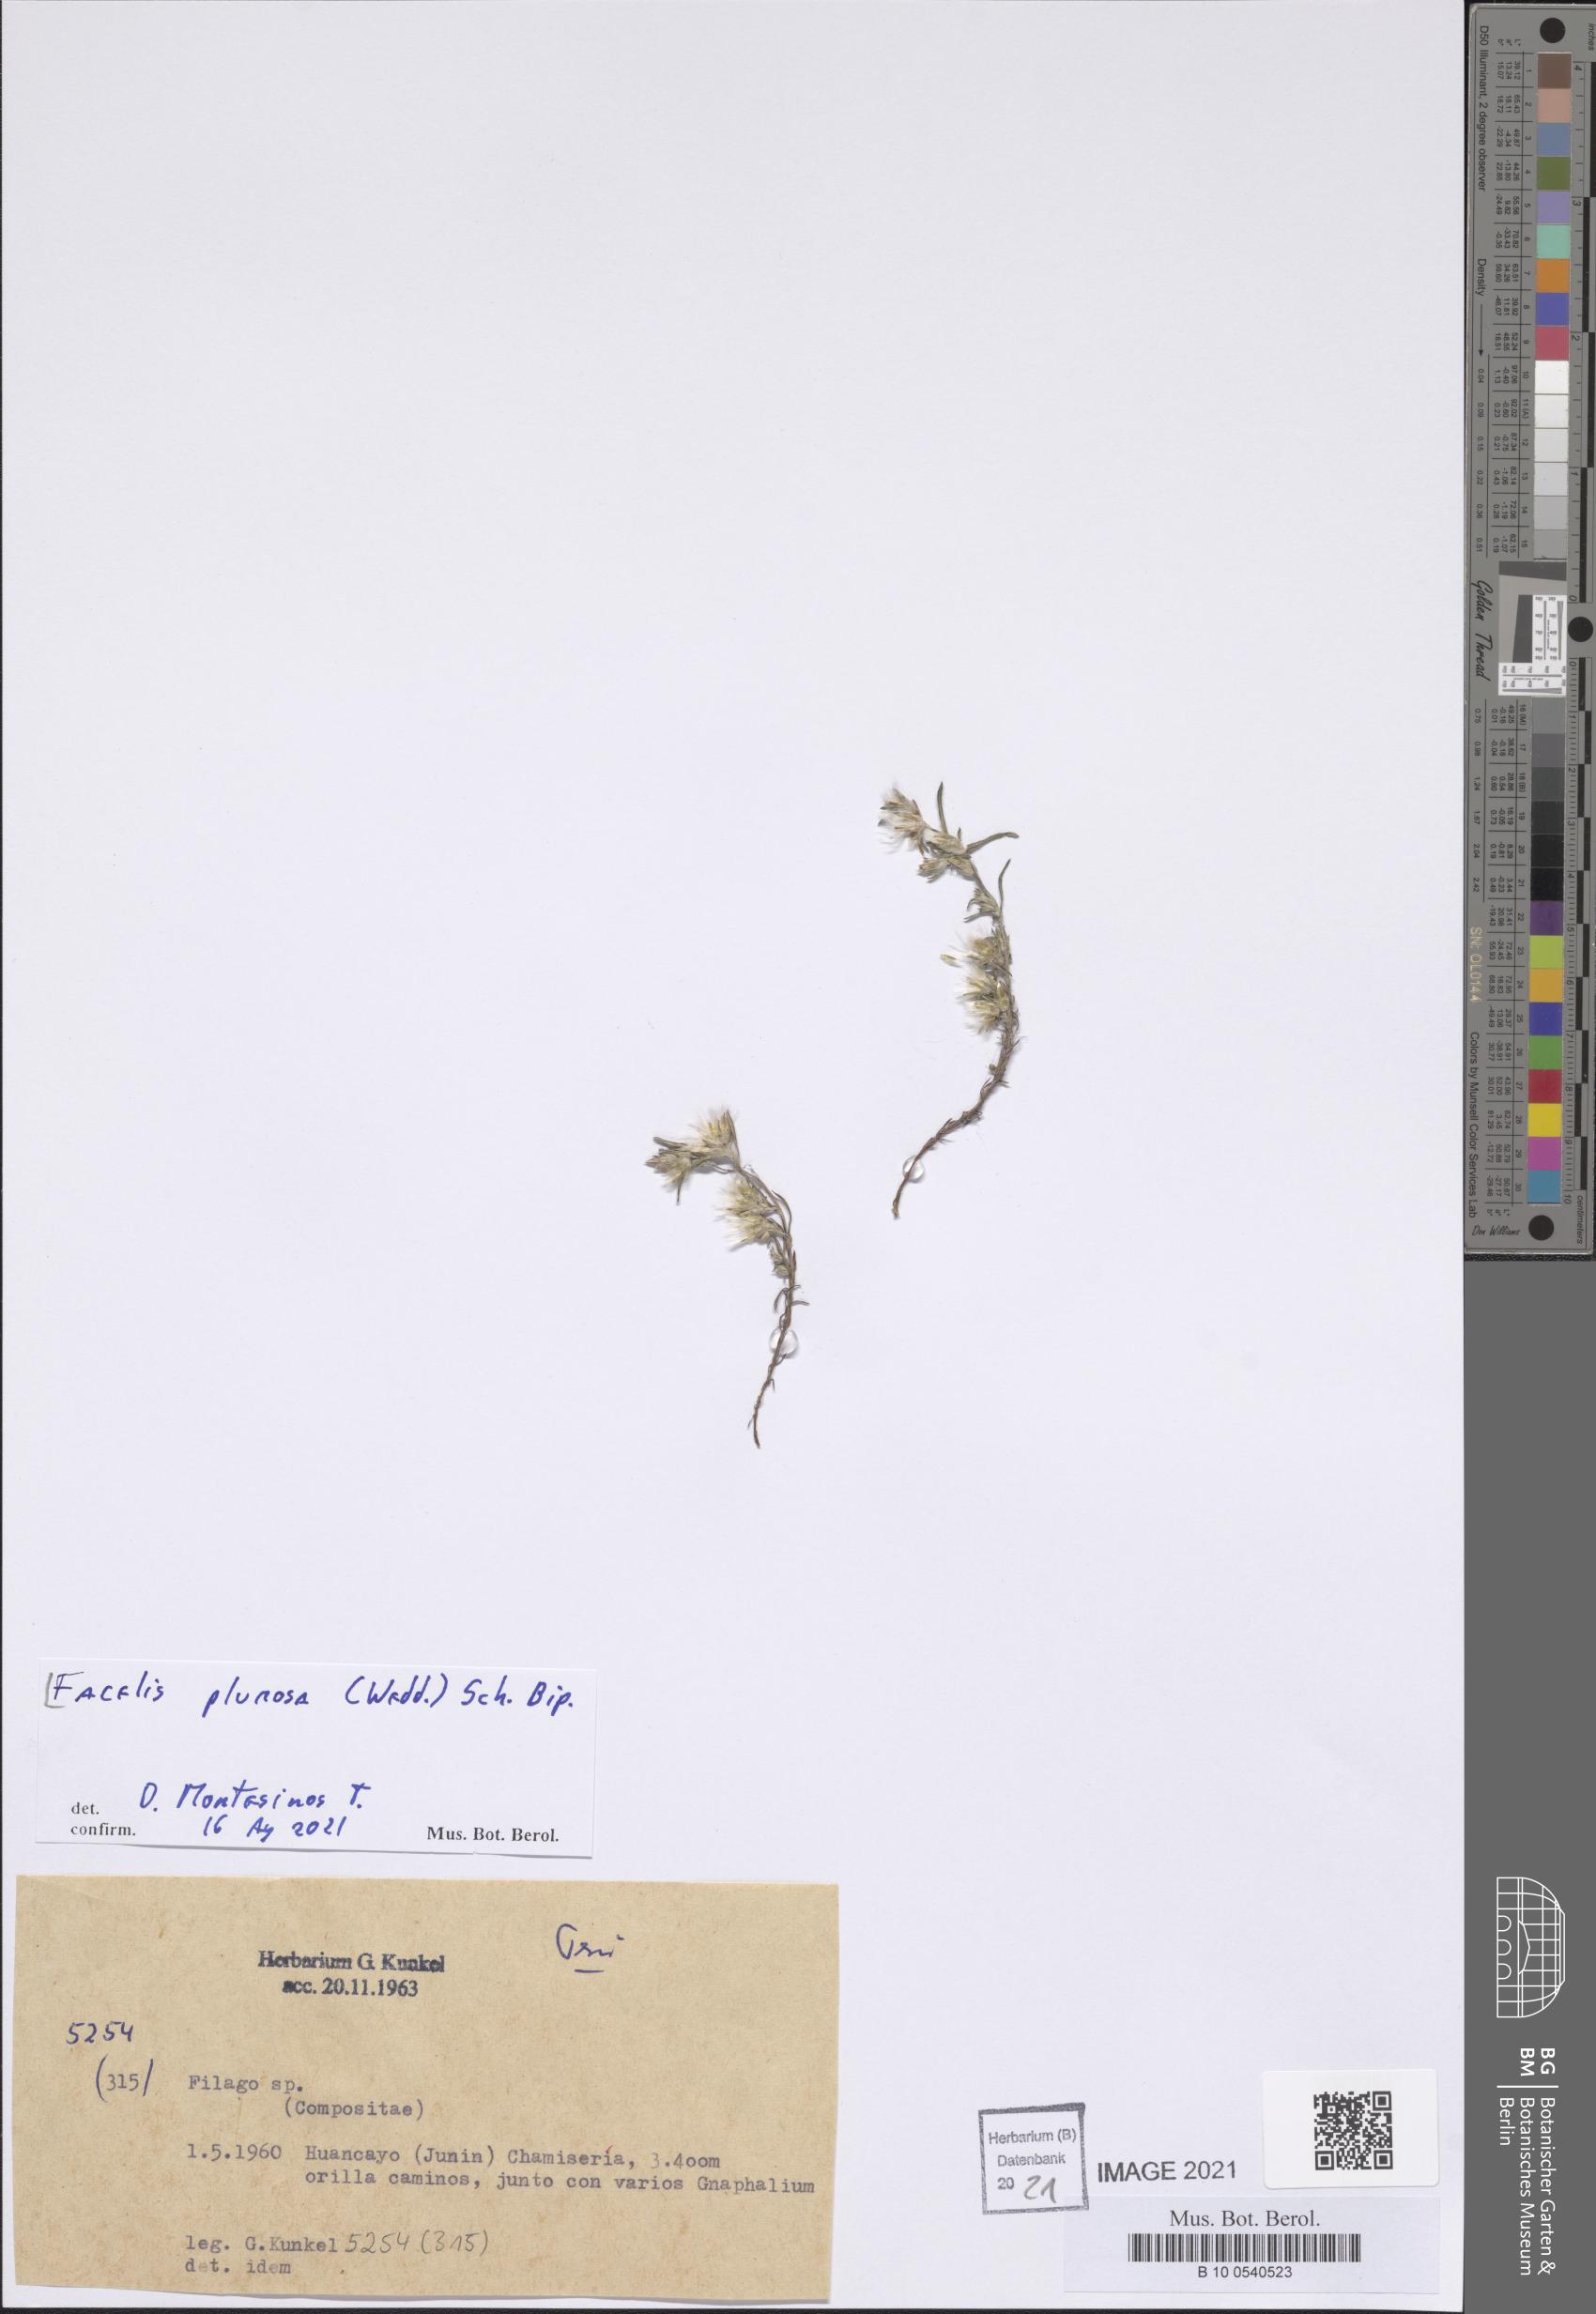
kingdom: Plantae
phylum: Tracheophyta
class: Magnoliopsida
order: Asterales
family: Asteraceae
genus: Facelis
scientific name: Facelis plumosa
